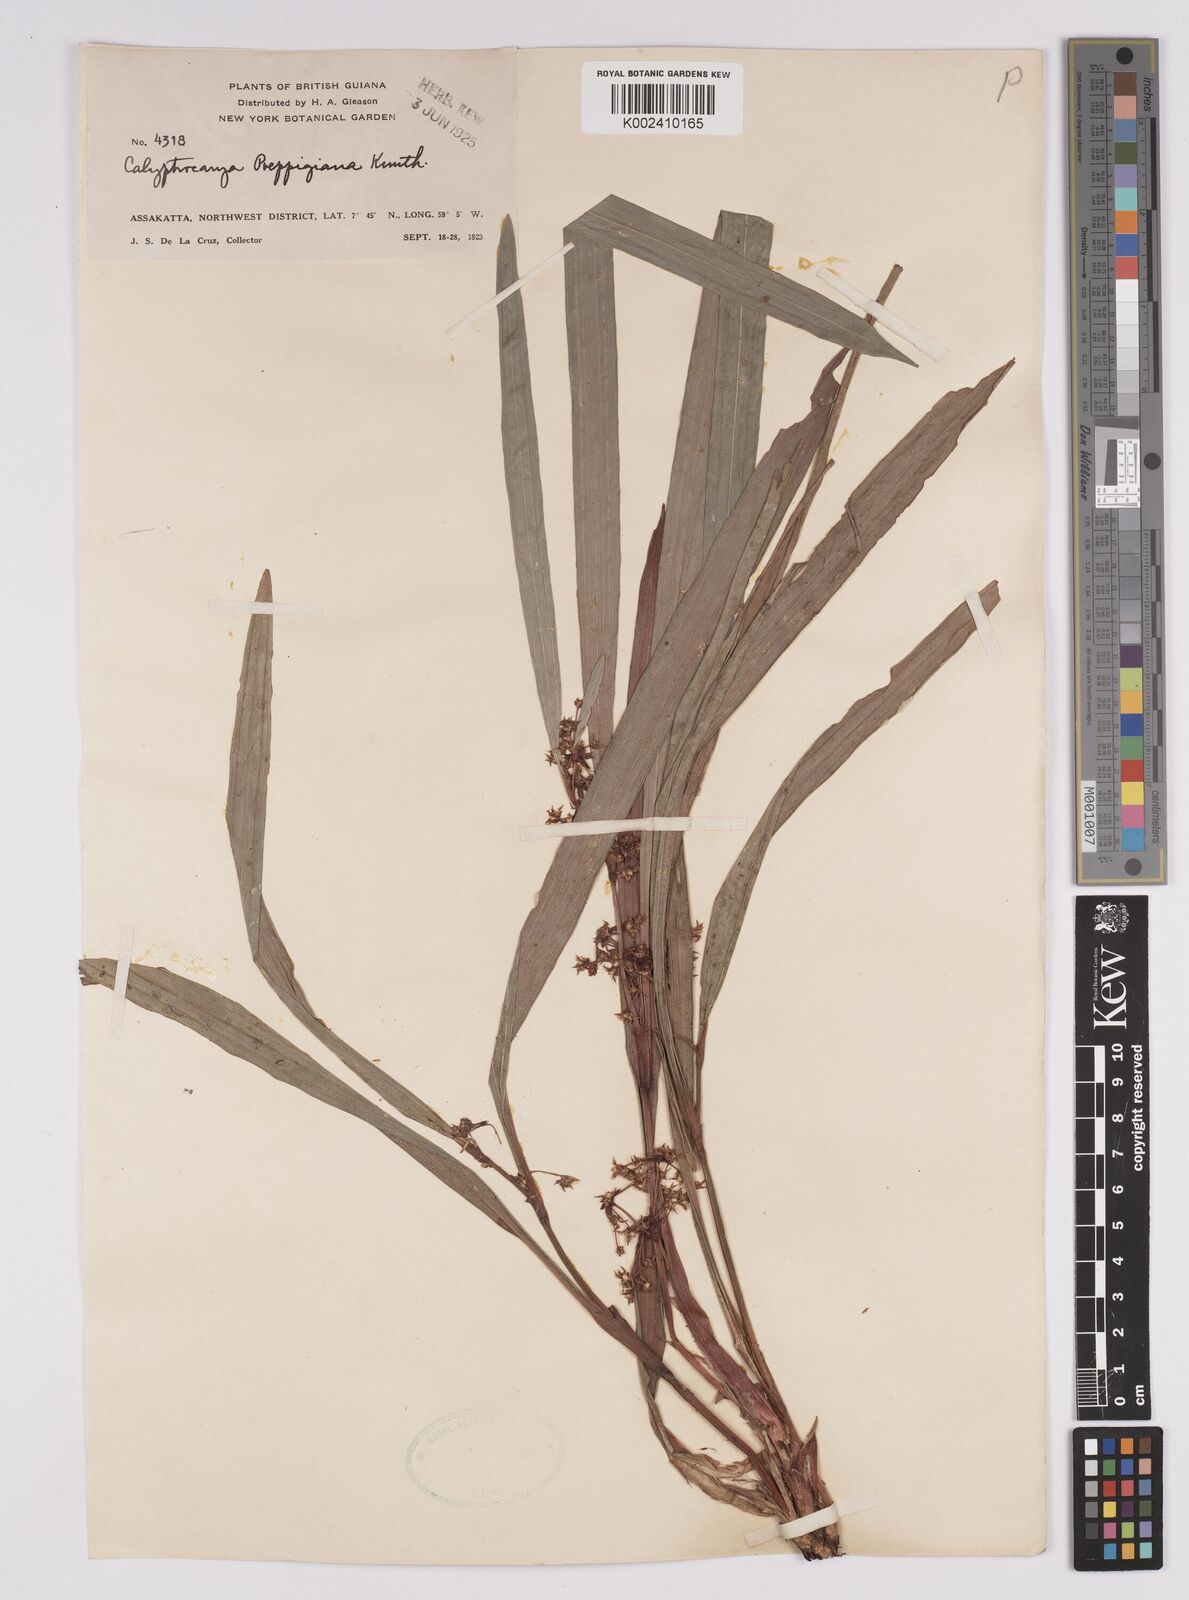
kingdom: Plantae
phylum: Tracheophyta
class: Liliopsida
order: Poales
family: Cyperaceae
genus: Calyptrocarya
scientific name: Calyptrocarya poeppigiana
